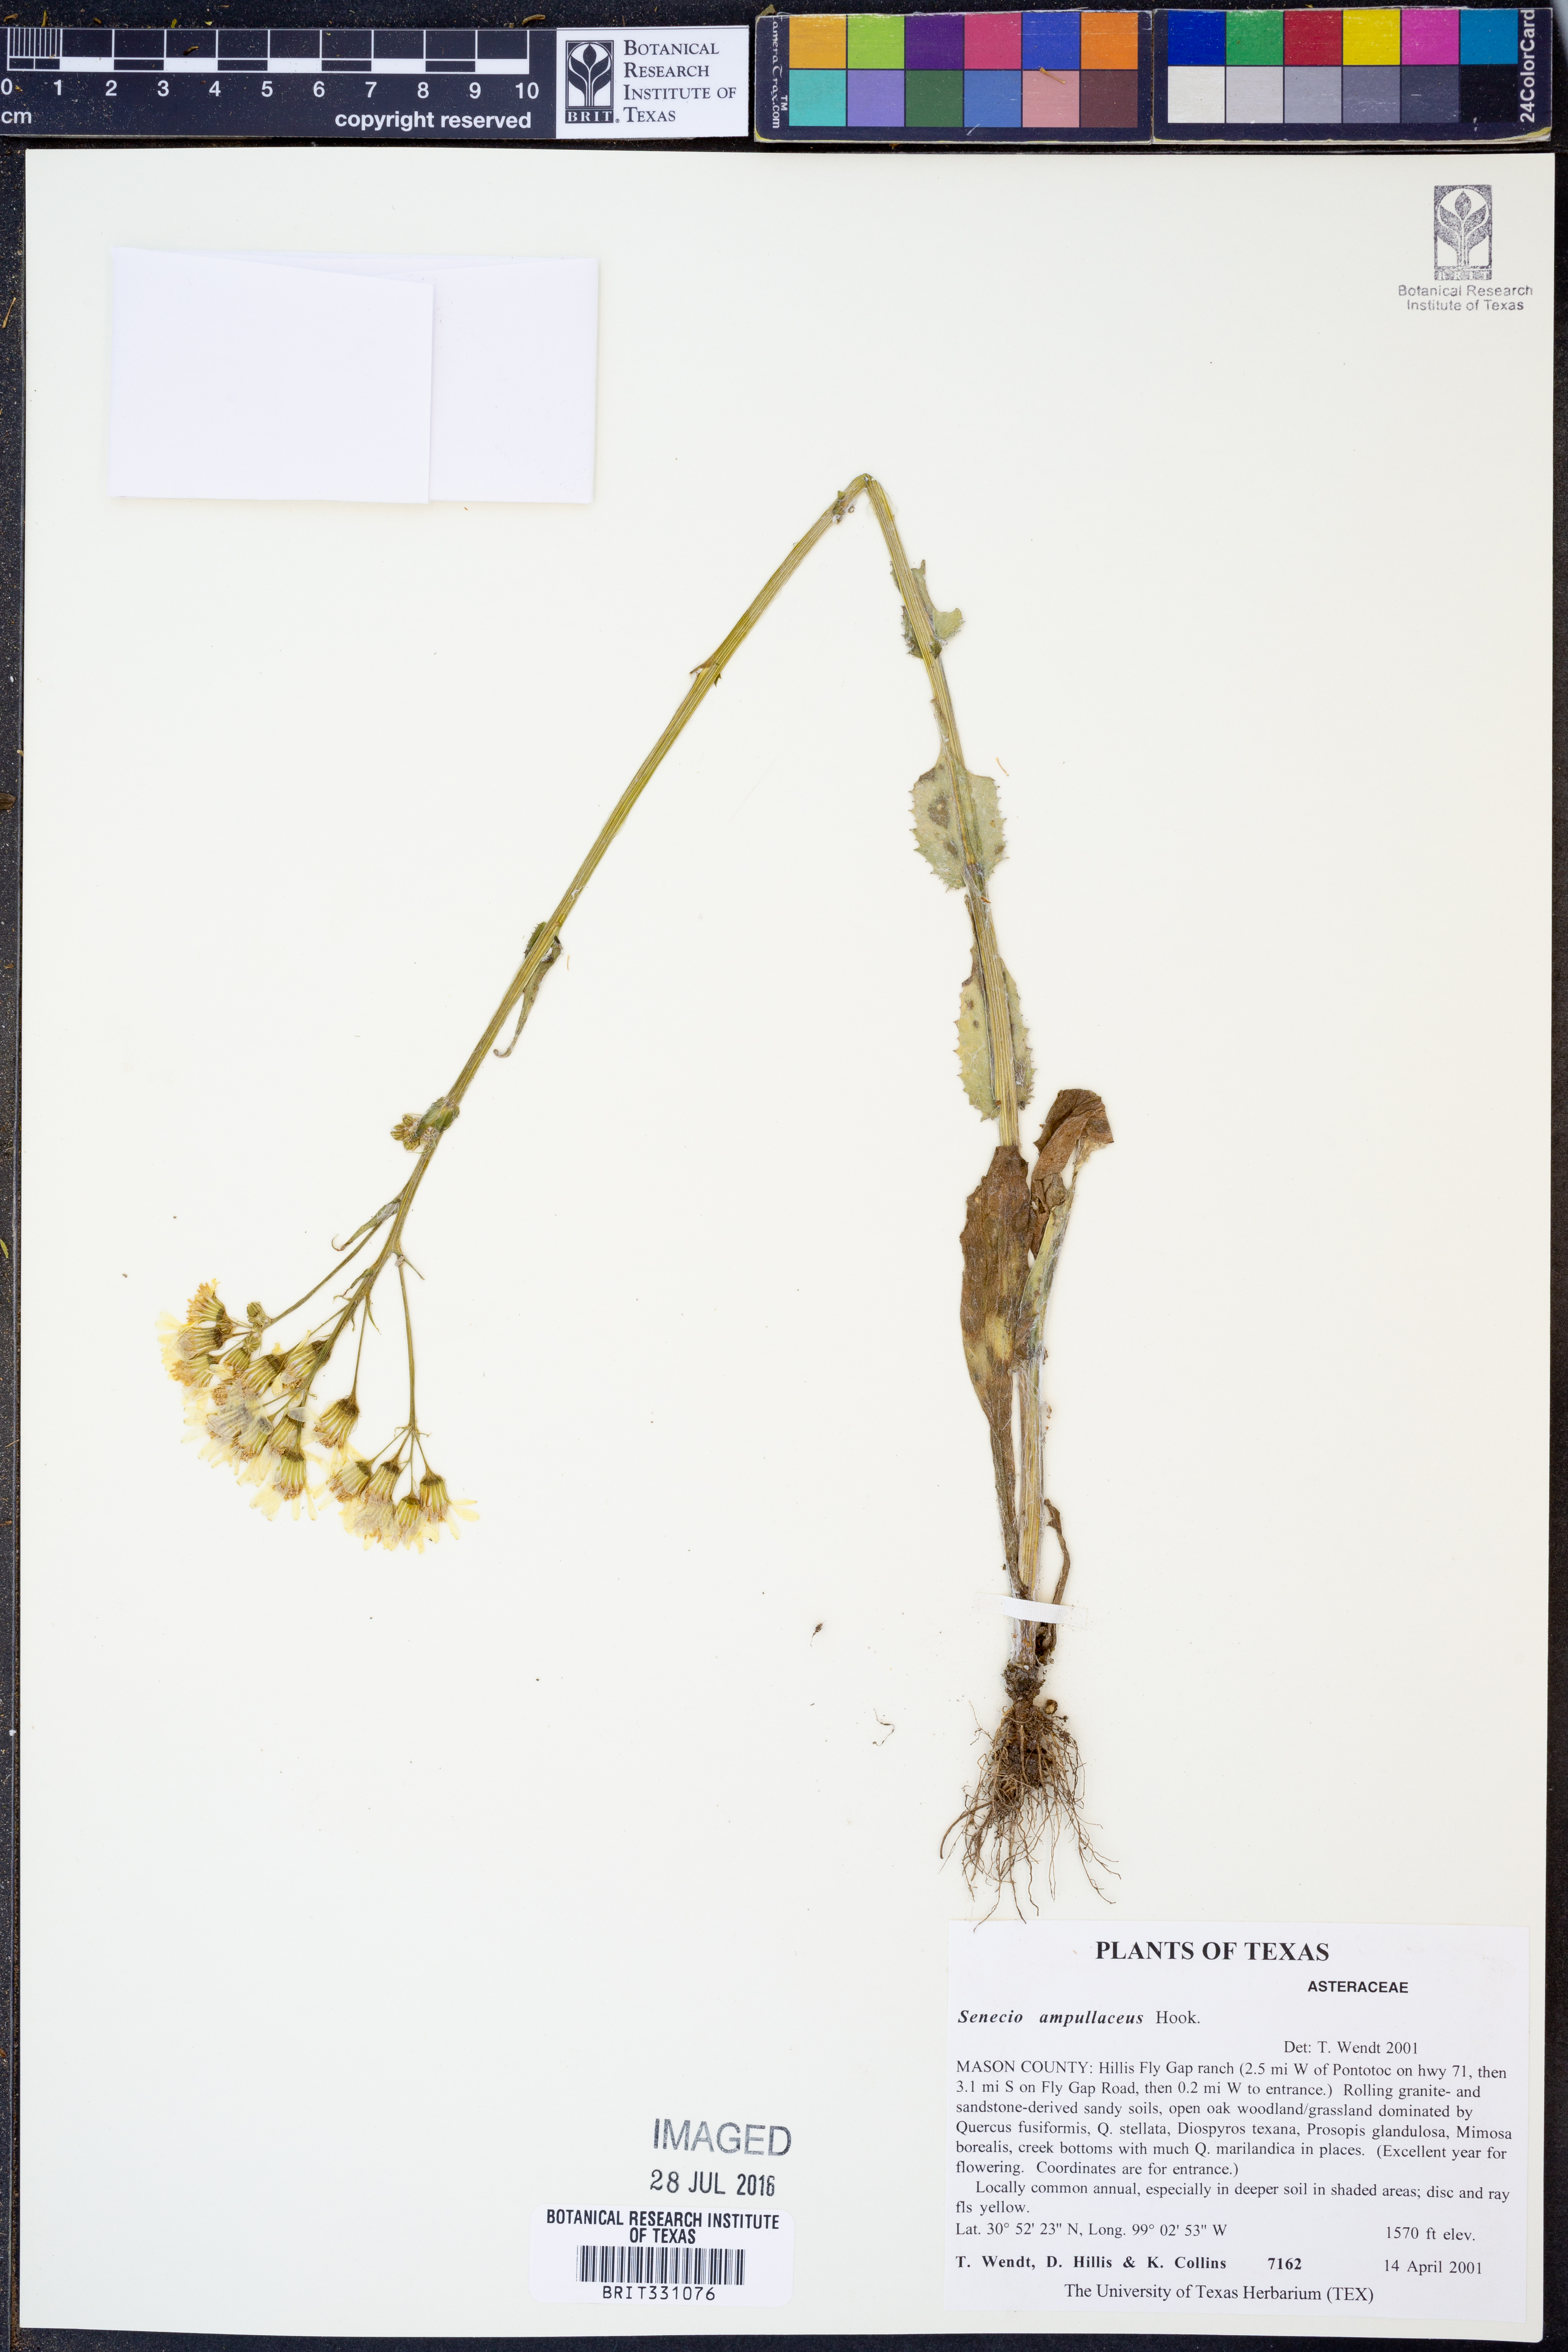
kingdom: Plantae
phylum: Tracheophyta
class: Magnoliopsida
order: Asterales
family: Asteraceae
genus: Senecio
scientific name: Senecio ampullaceus
